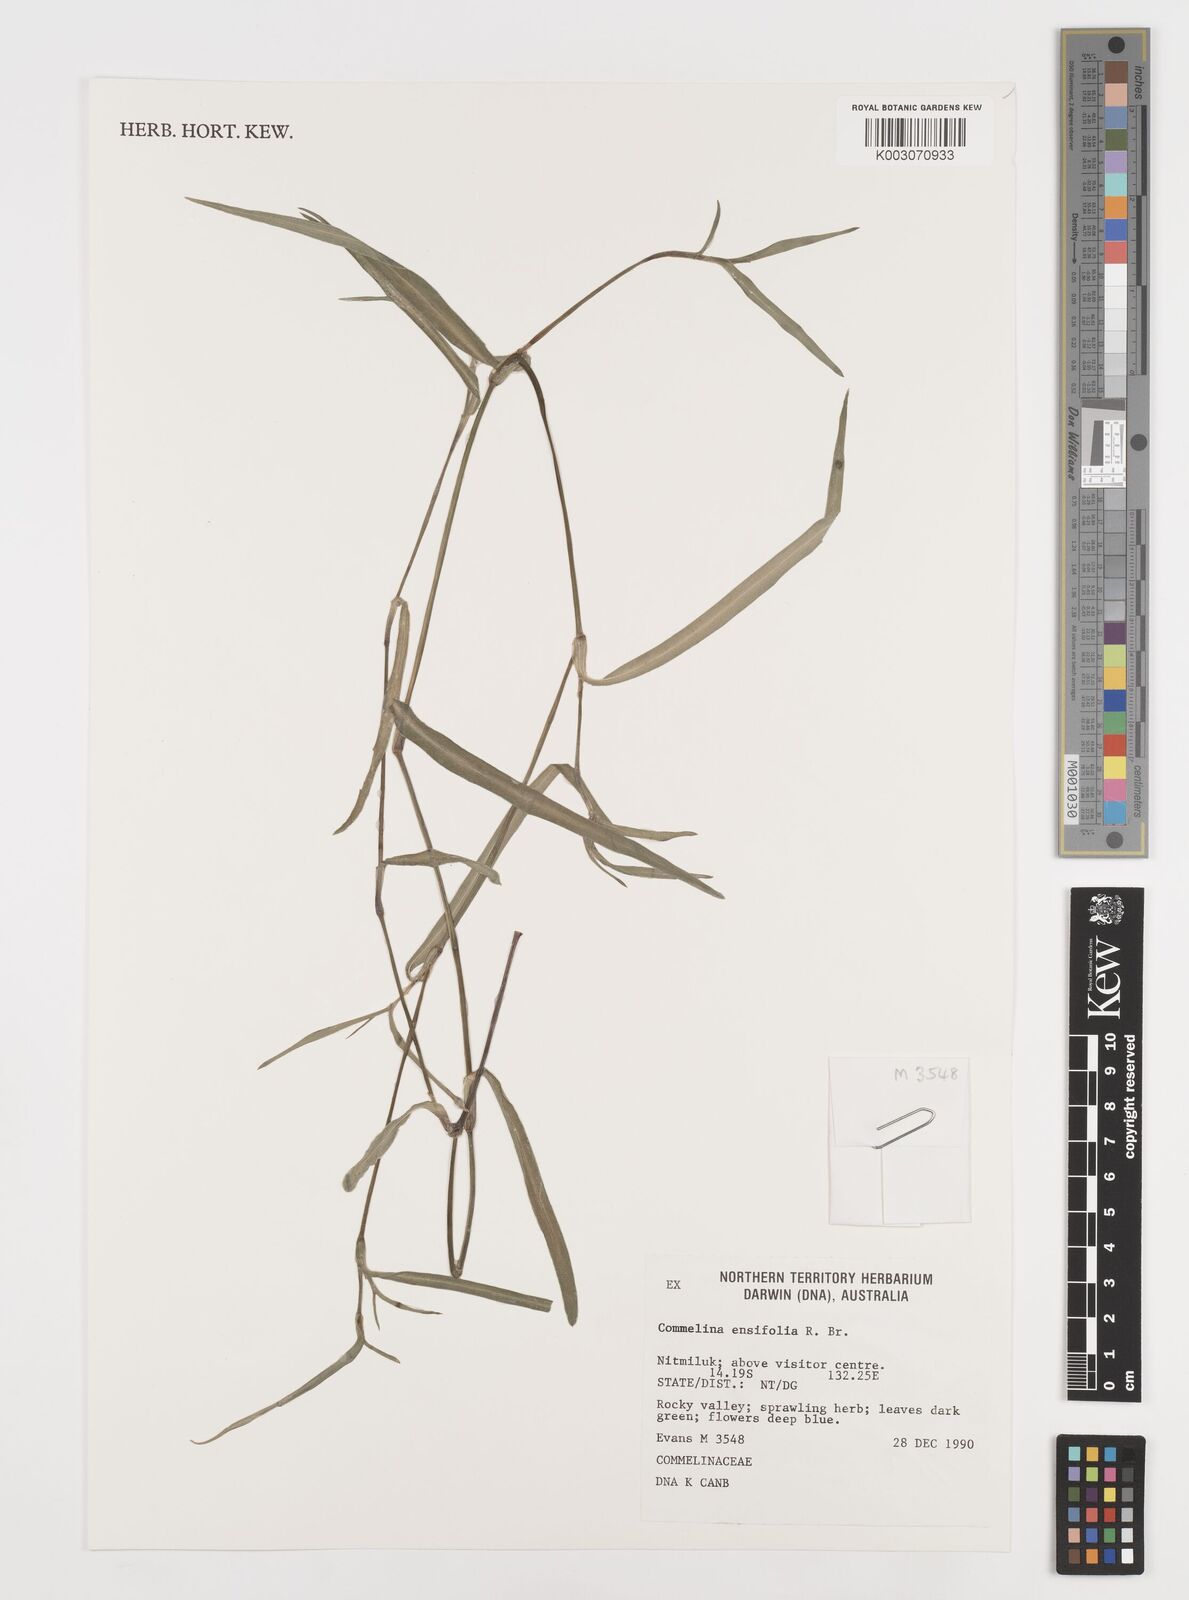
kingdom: Plantae
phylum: Tracheophyta
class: Liliopsida
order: Commelinales
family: Commelinaceae
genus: Commelina
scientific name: Commelina ensifolia
